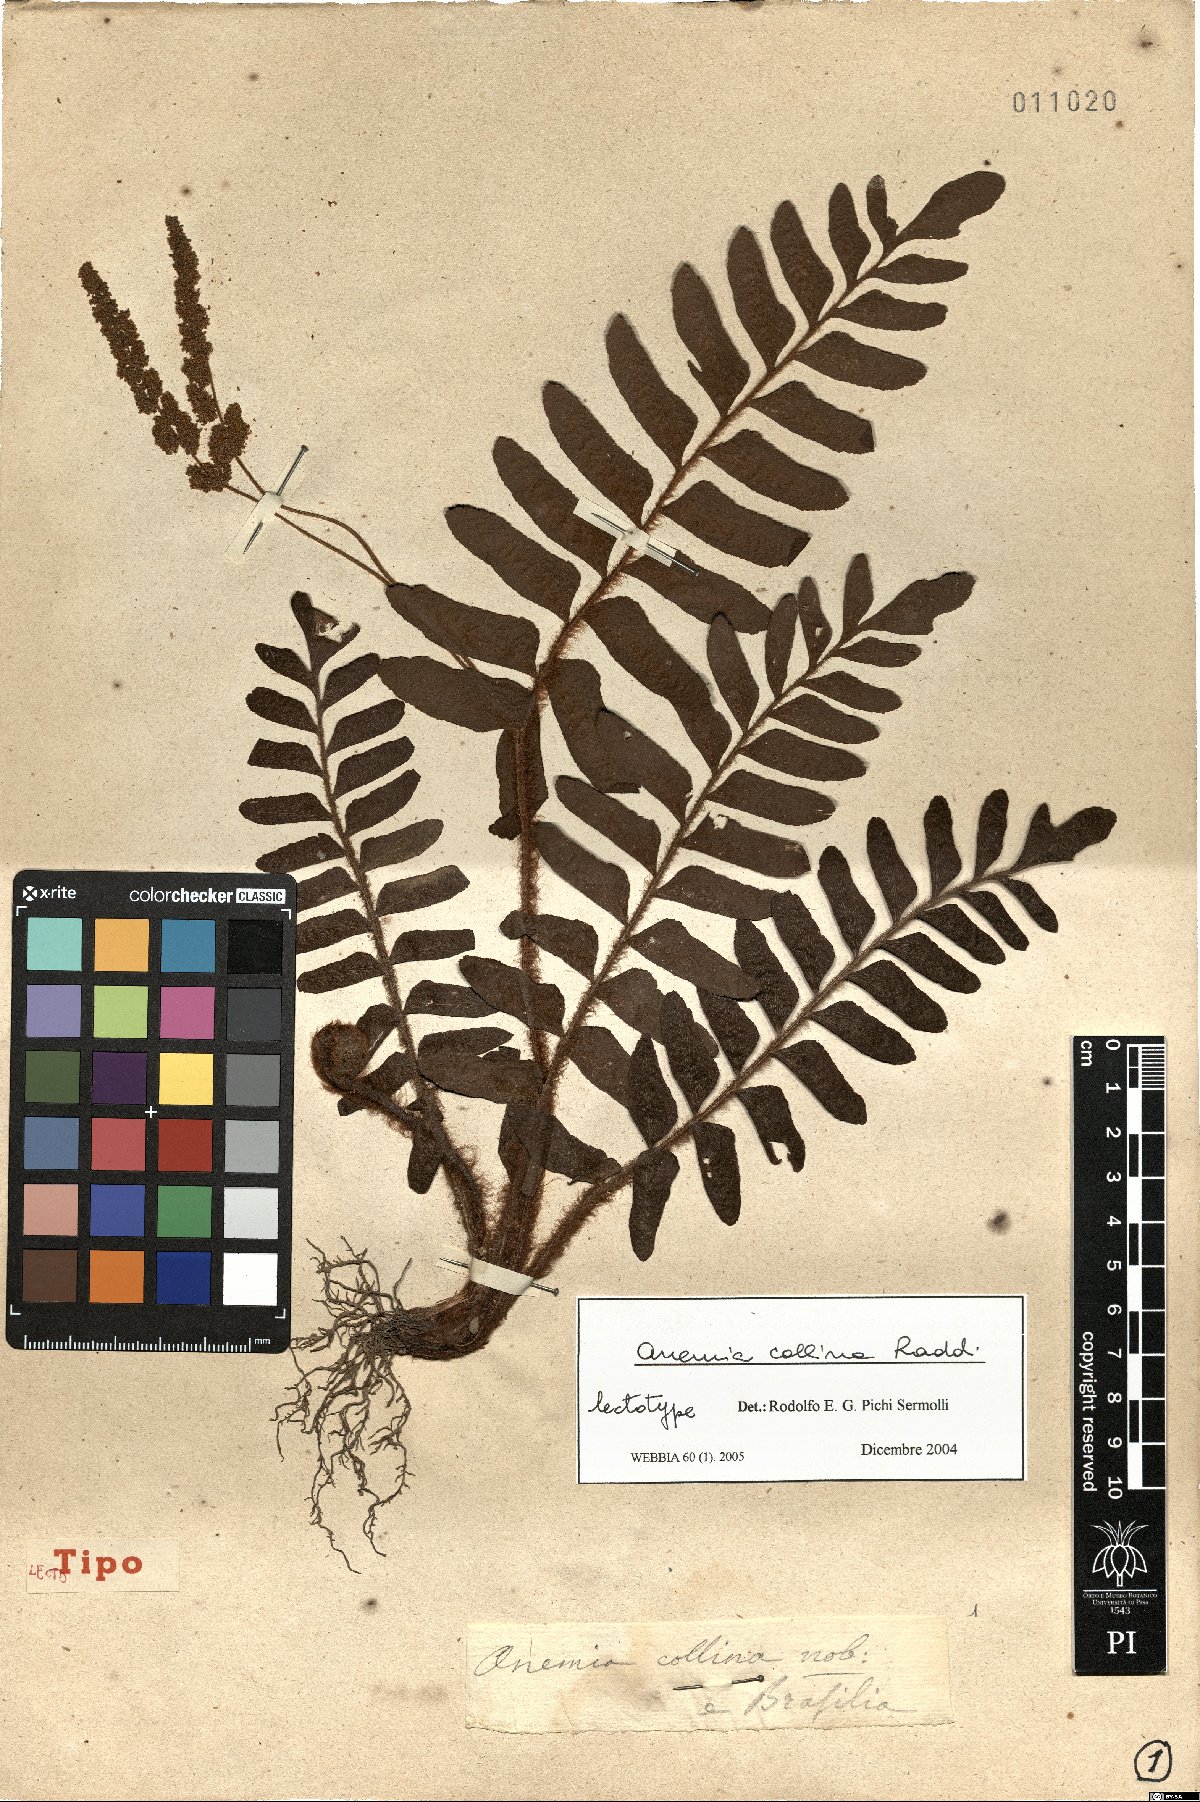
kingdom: Plantae
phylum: Tracheophyta
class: Polypodiopsida
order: Schizaeales
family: Anemiaceae
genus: Anemia
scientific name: Anemia collina
